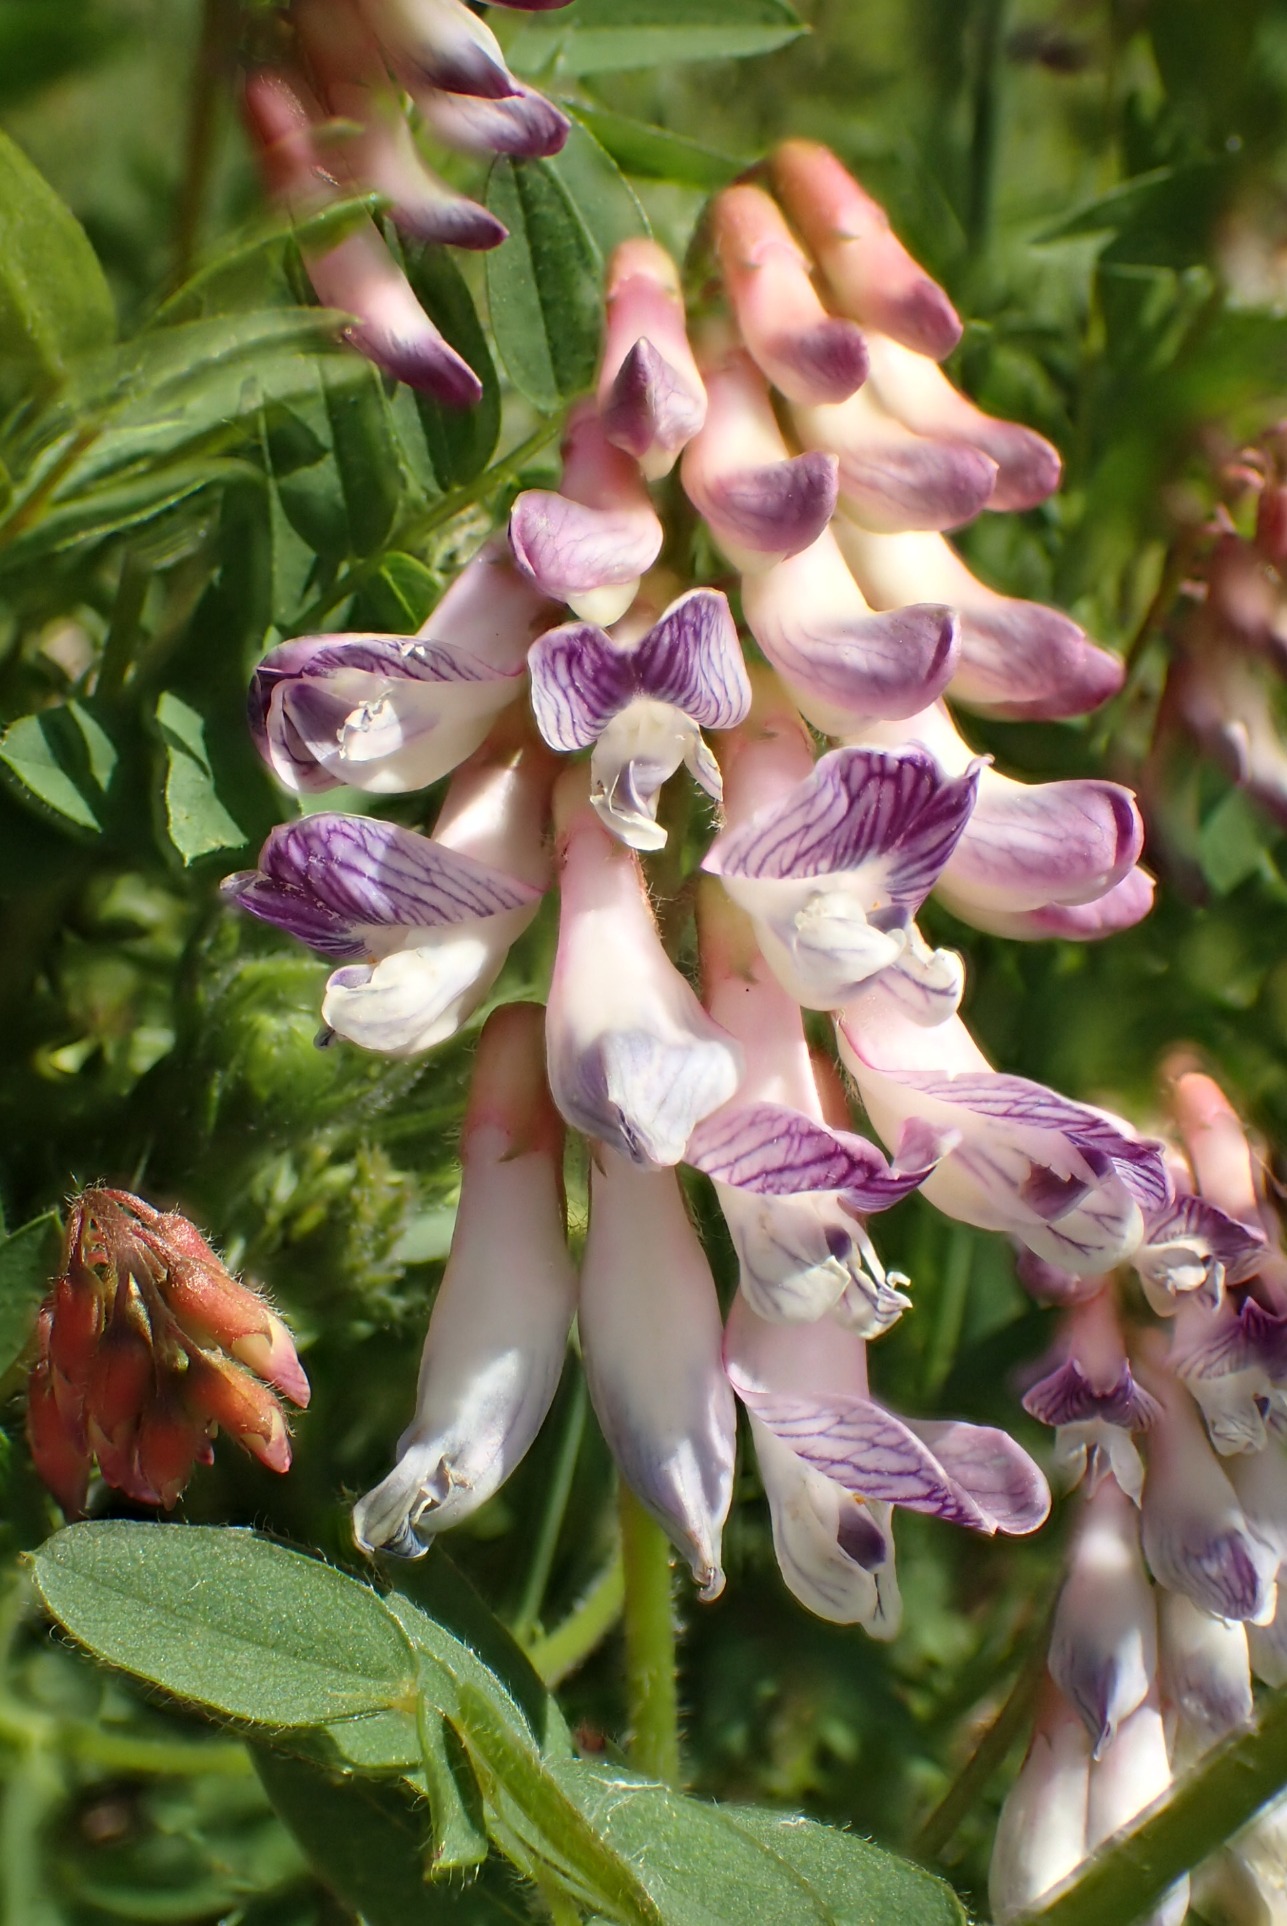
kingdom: Plantae
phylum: Tracheophyta
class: Magnoliopsida
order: Fabales
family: Fabaceae
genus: Vicia
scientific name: Vicia orobus
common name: Lyng-vikke
